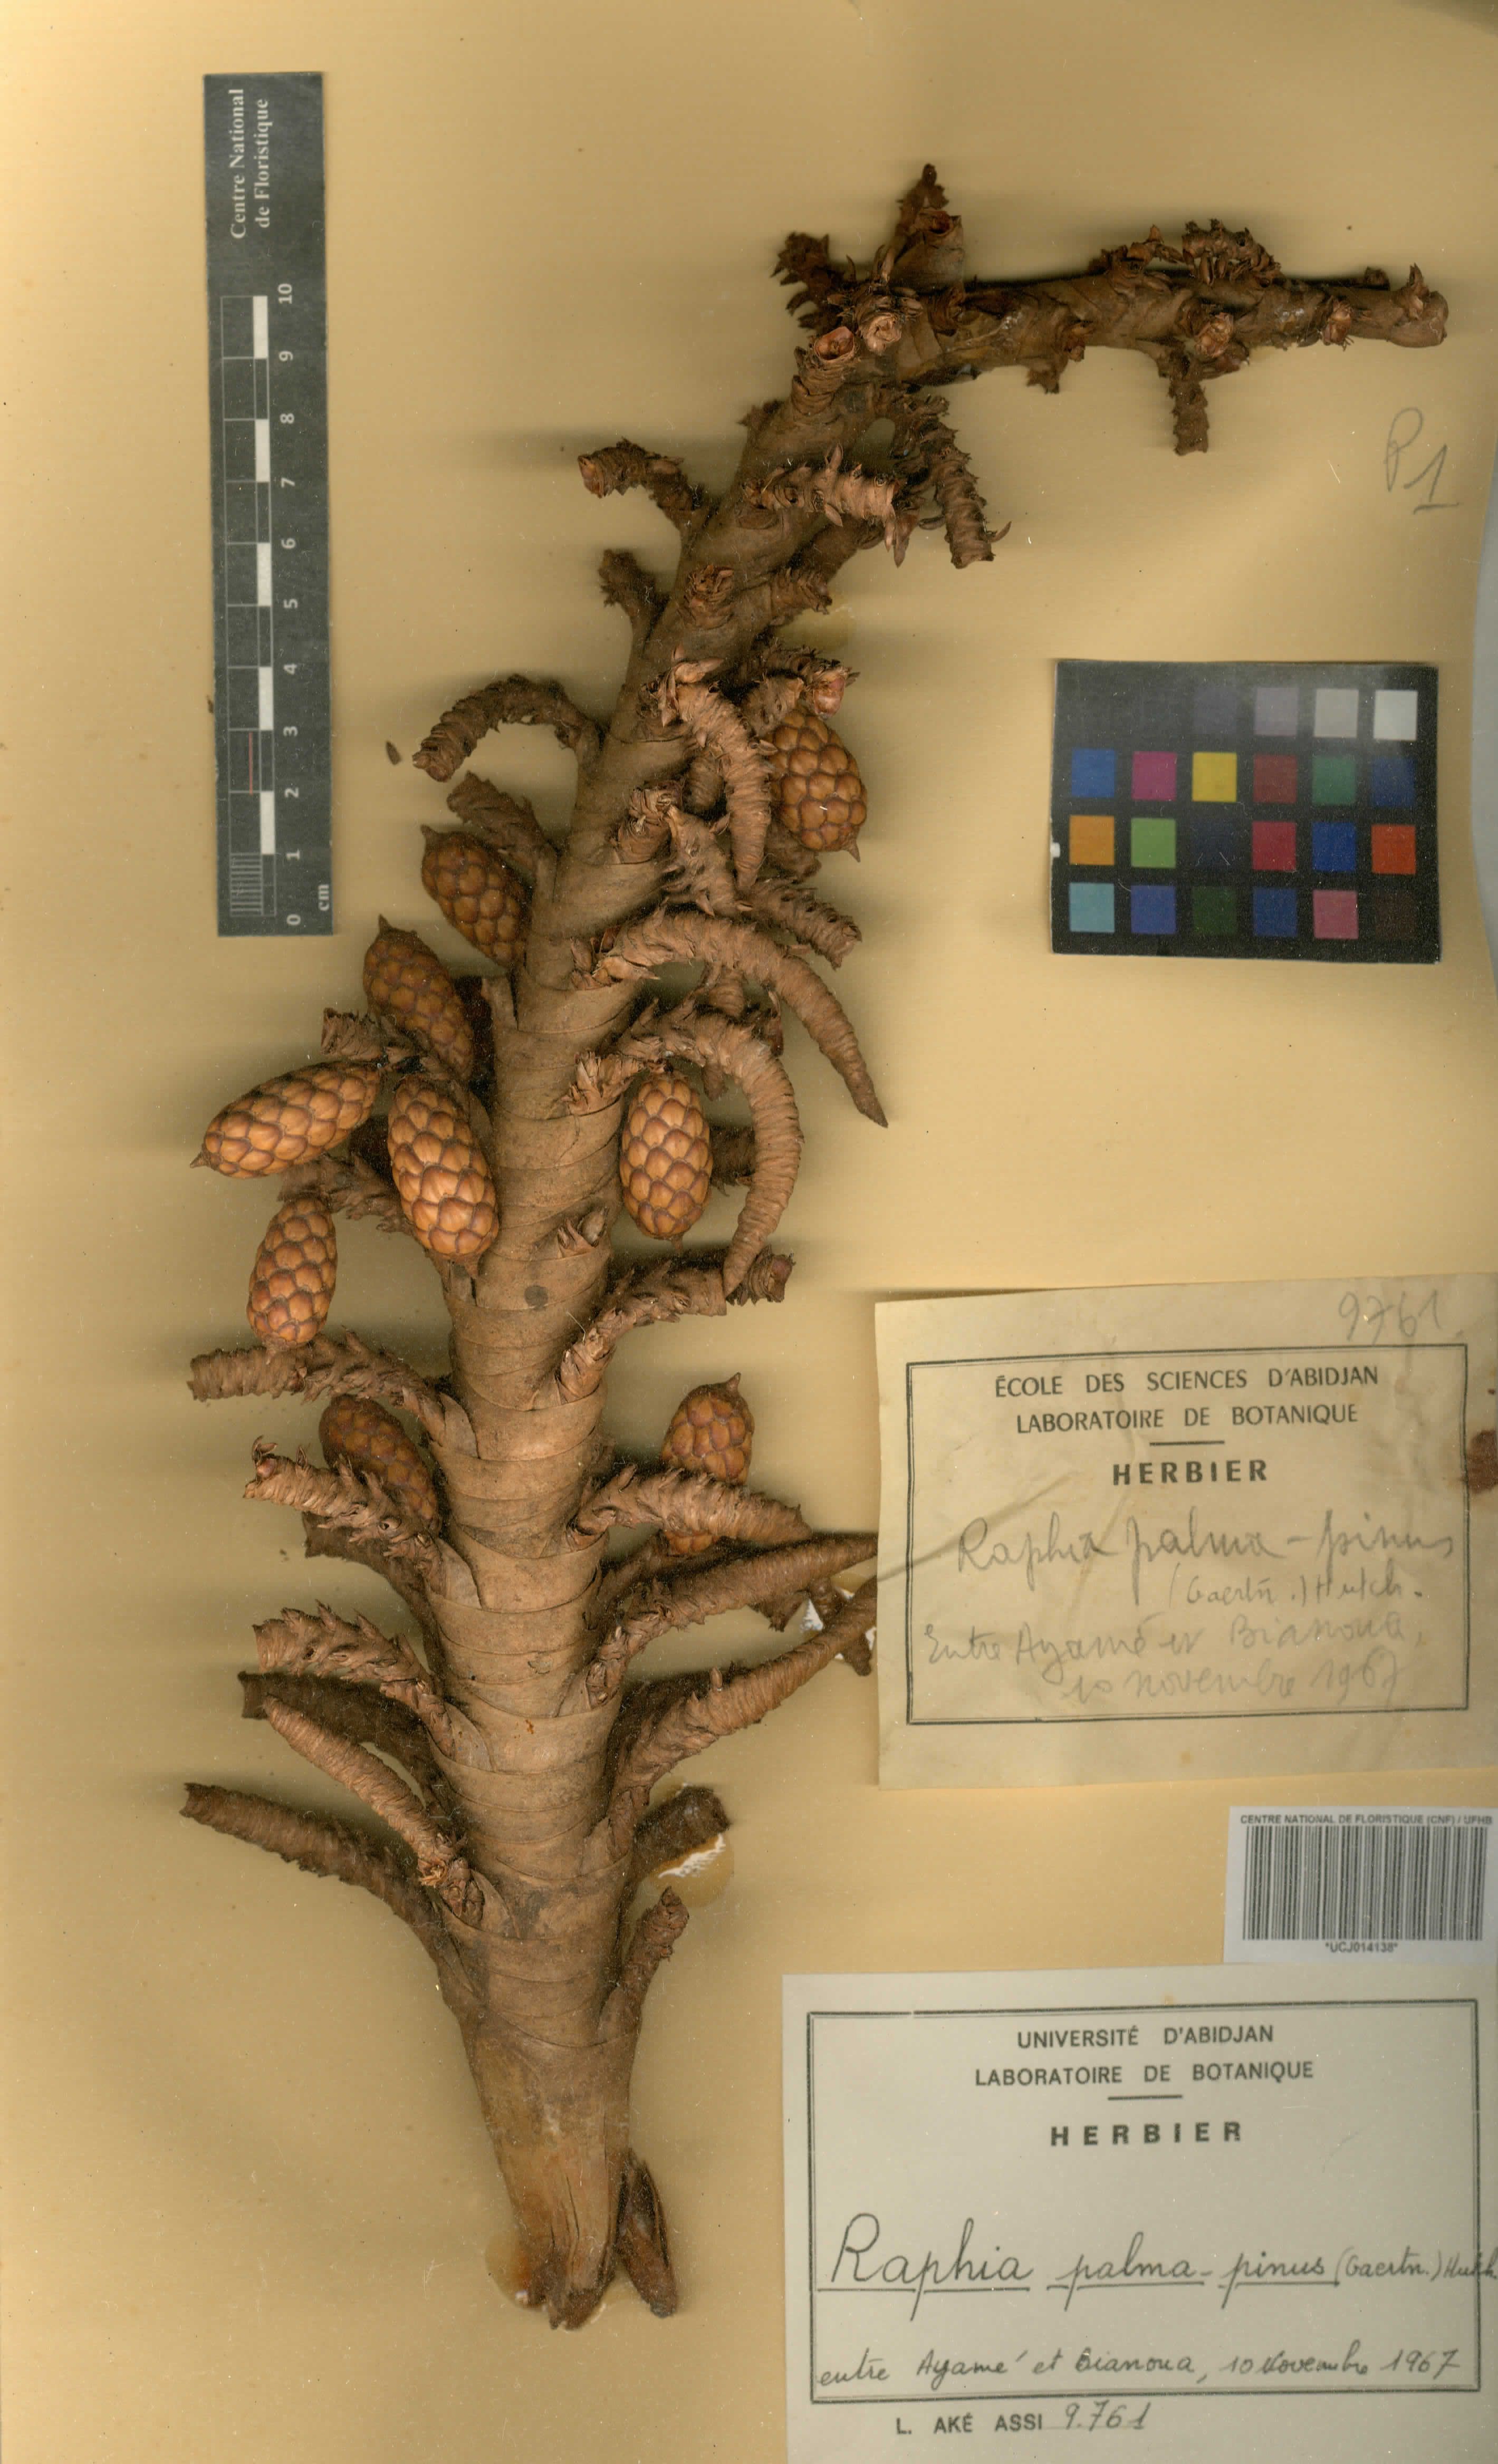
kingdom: Plantae
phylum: Tracheophyta
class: Liliopsida
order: Arecales
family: Arecaceae
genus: Raphia
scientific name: Raphia palma-pinus
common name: Raphia palm
